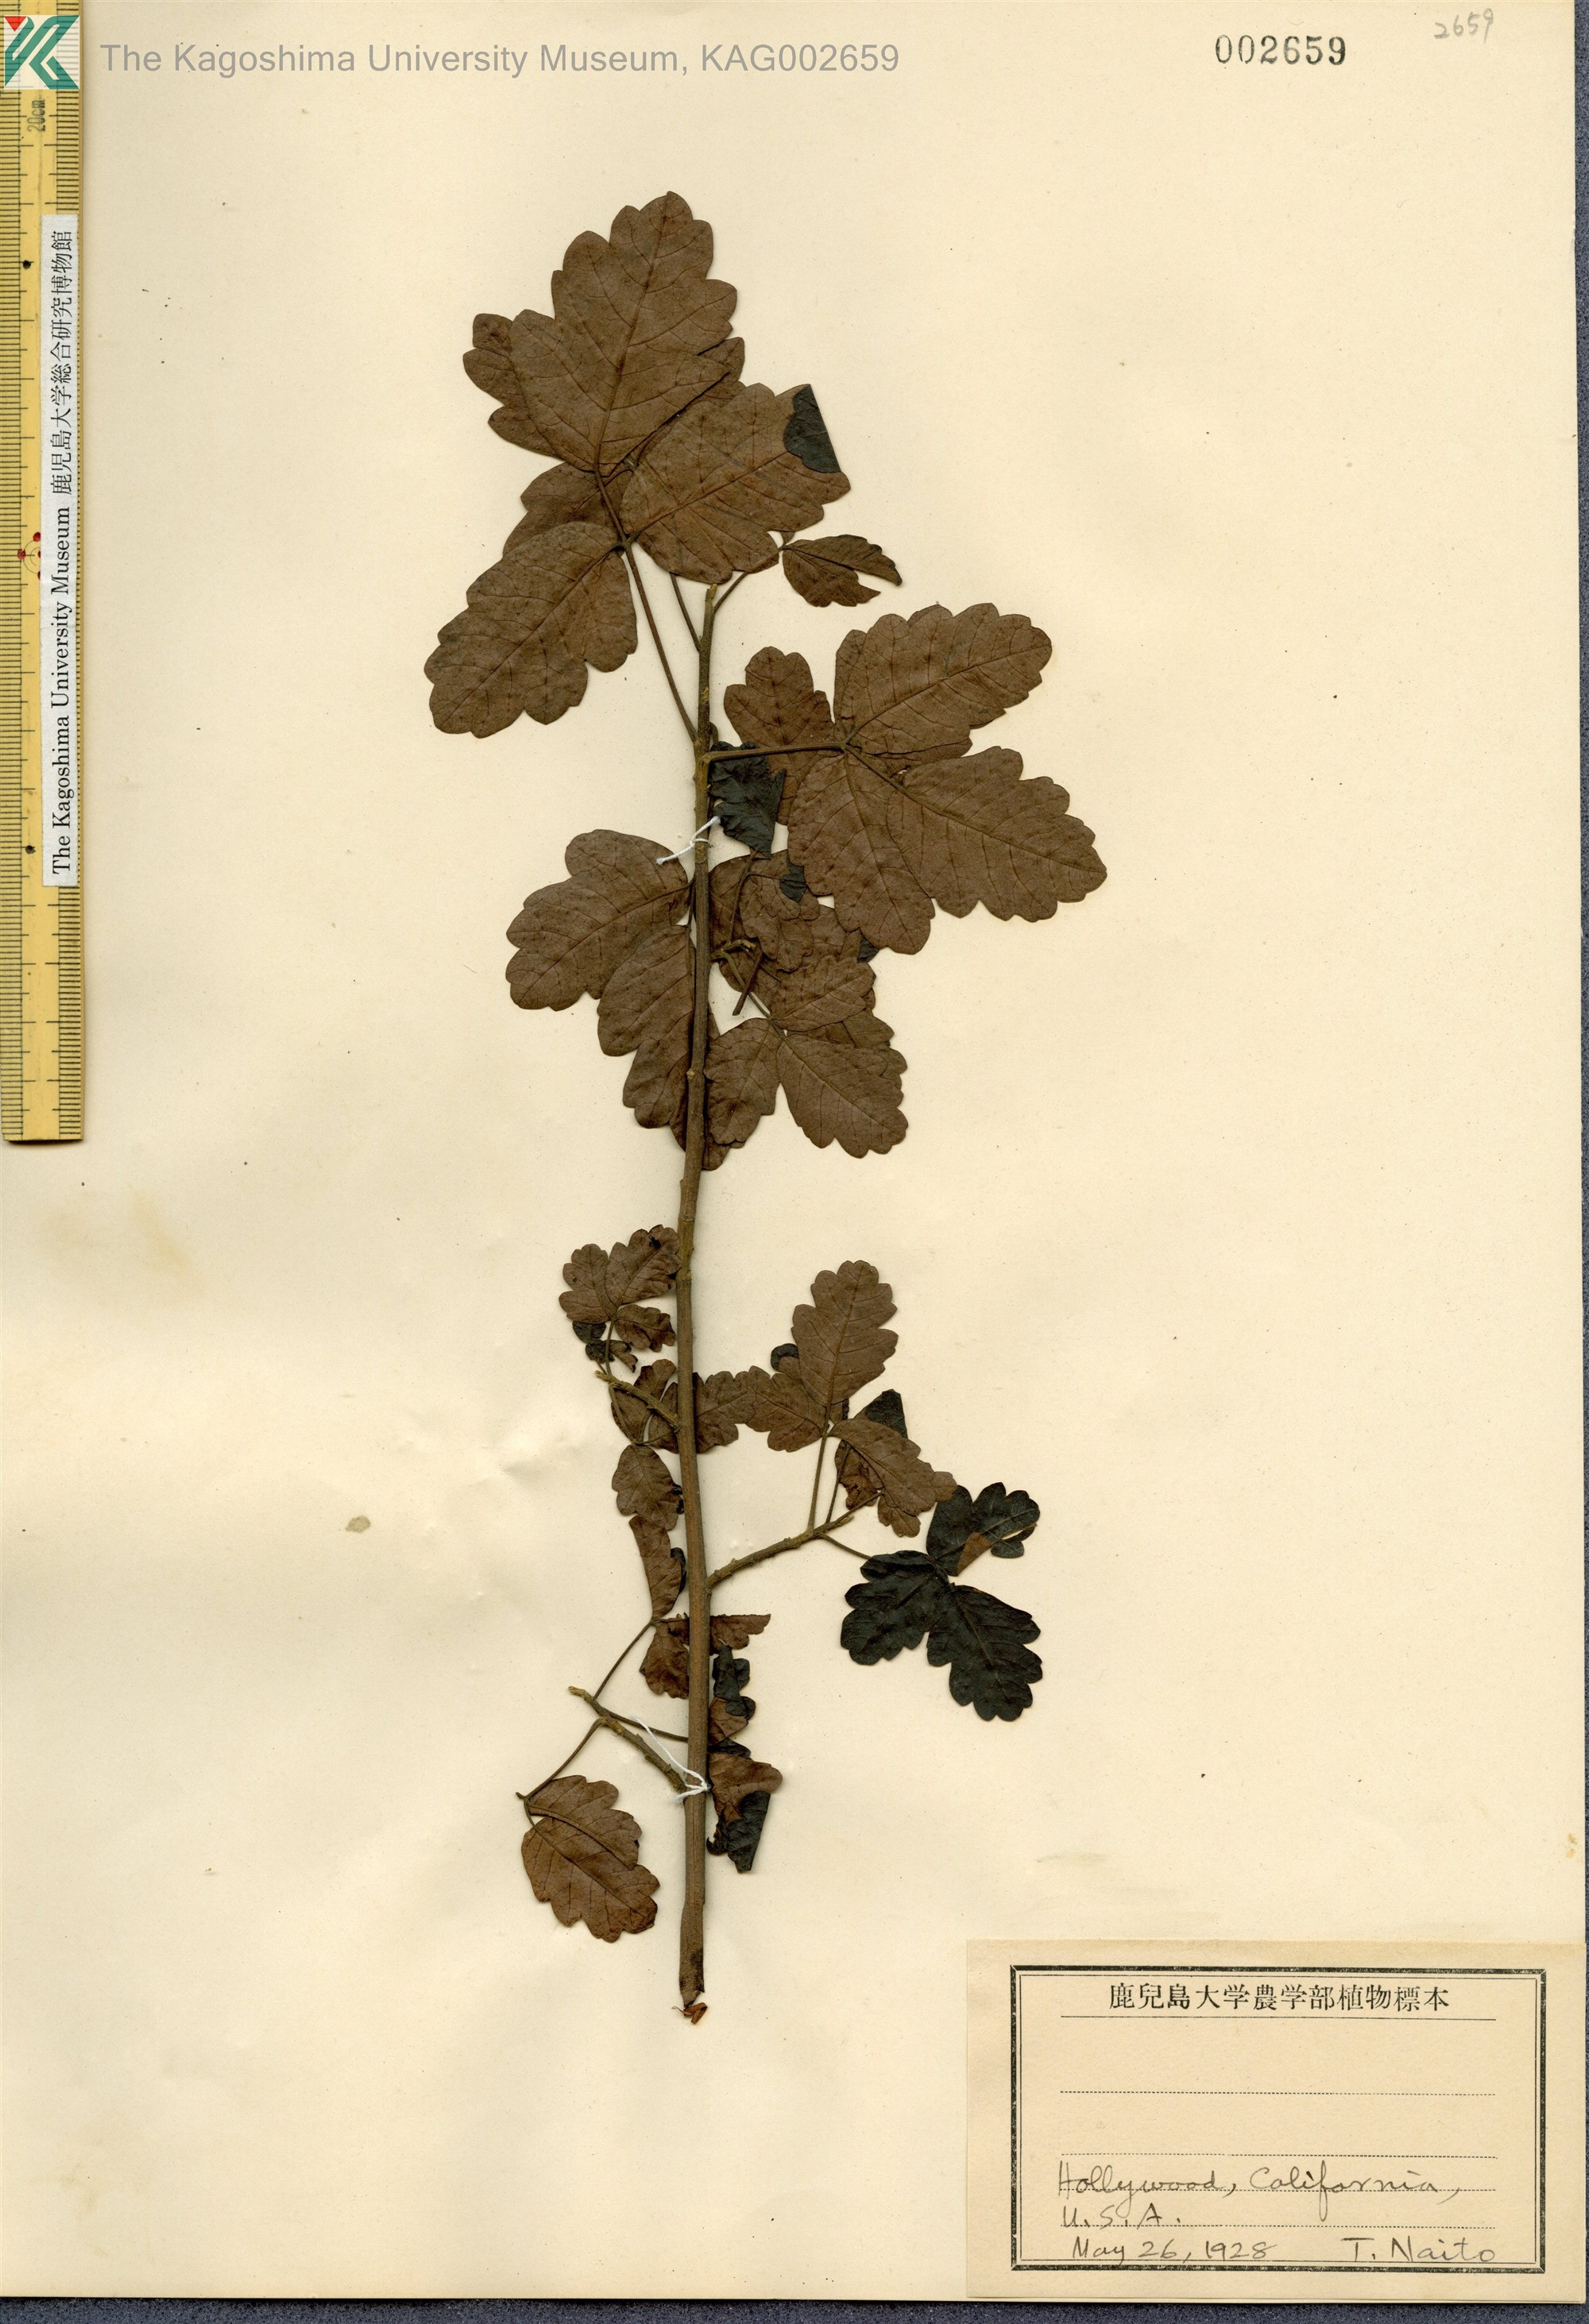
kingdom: Plantae
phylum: Tracheophyta
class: Magnoliopsida
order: Sapindales
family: Anacardiaceae
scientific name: Anacardiaceae
